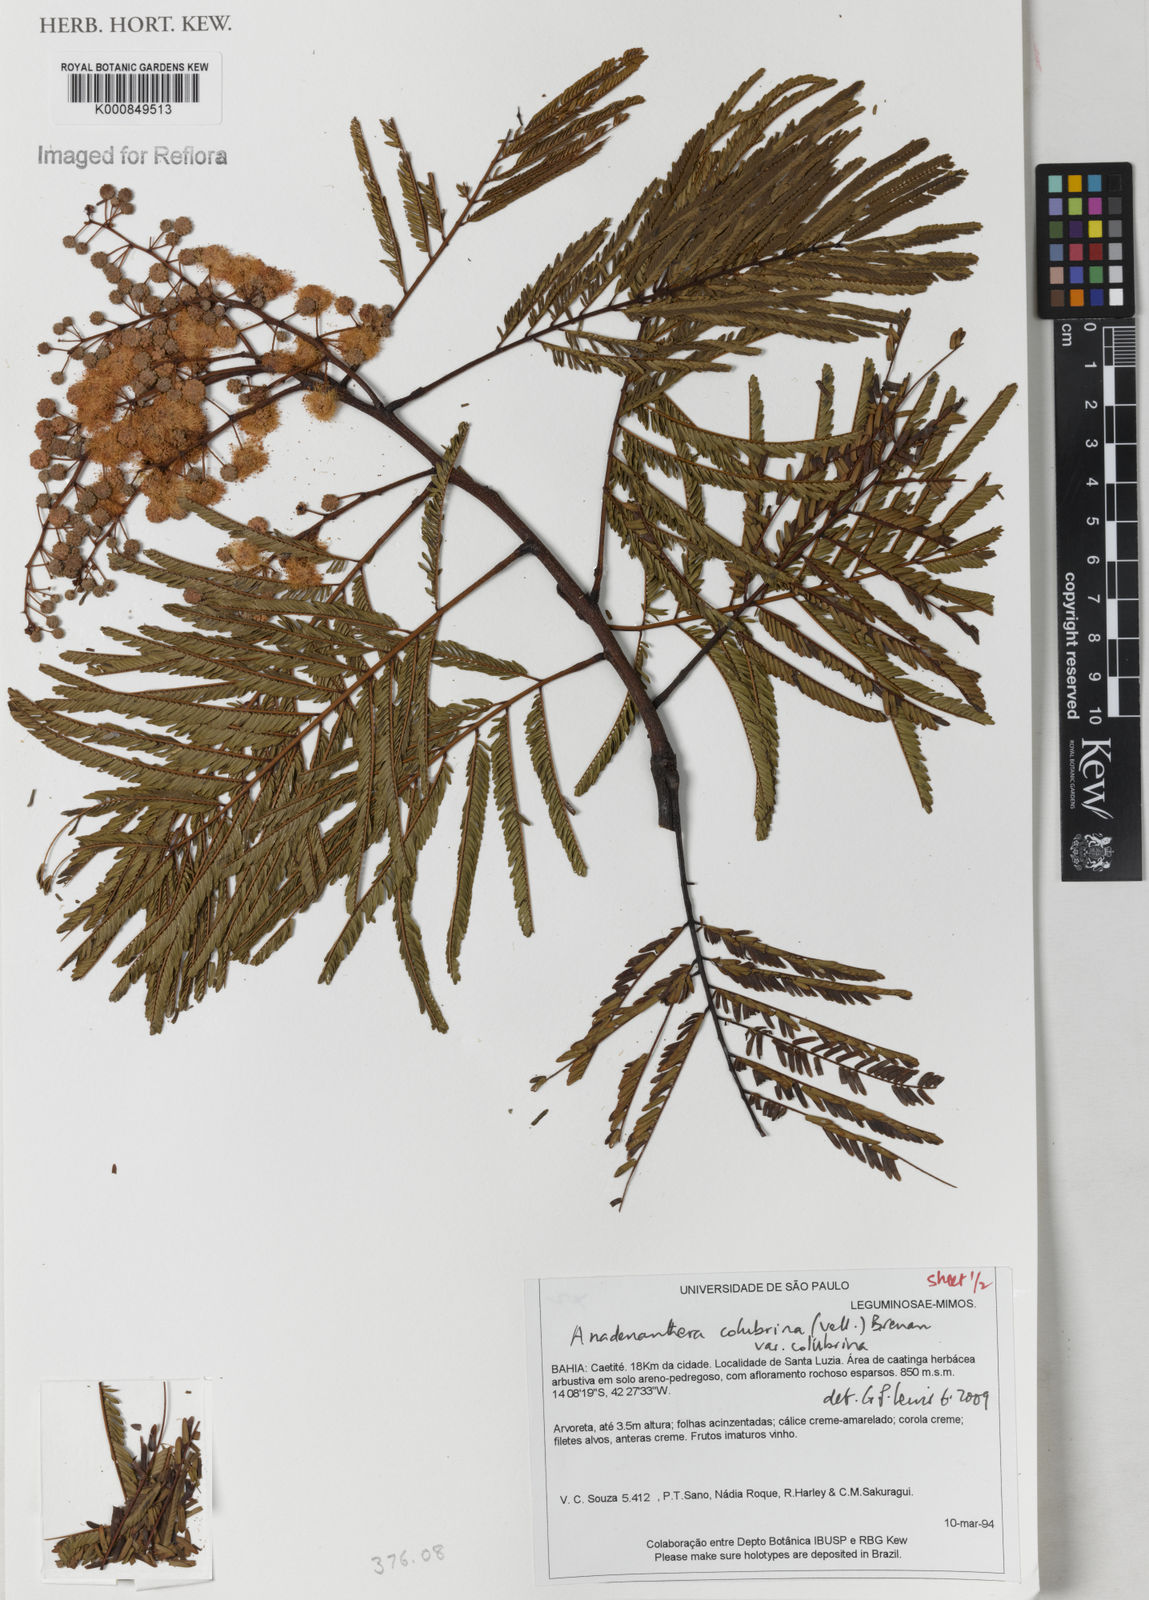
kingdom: Plantae
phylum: Tracheophyta
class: Magnoliopsida
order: Fabales
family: Fabaceae
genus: Anadenanthera
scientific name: Anadenanthera colubrina
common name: Curupay
